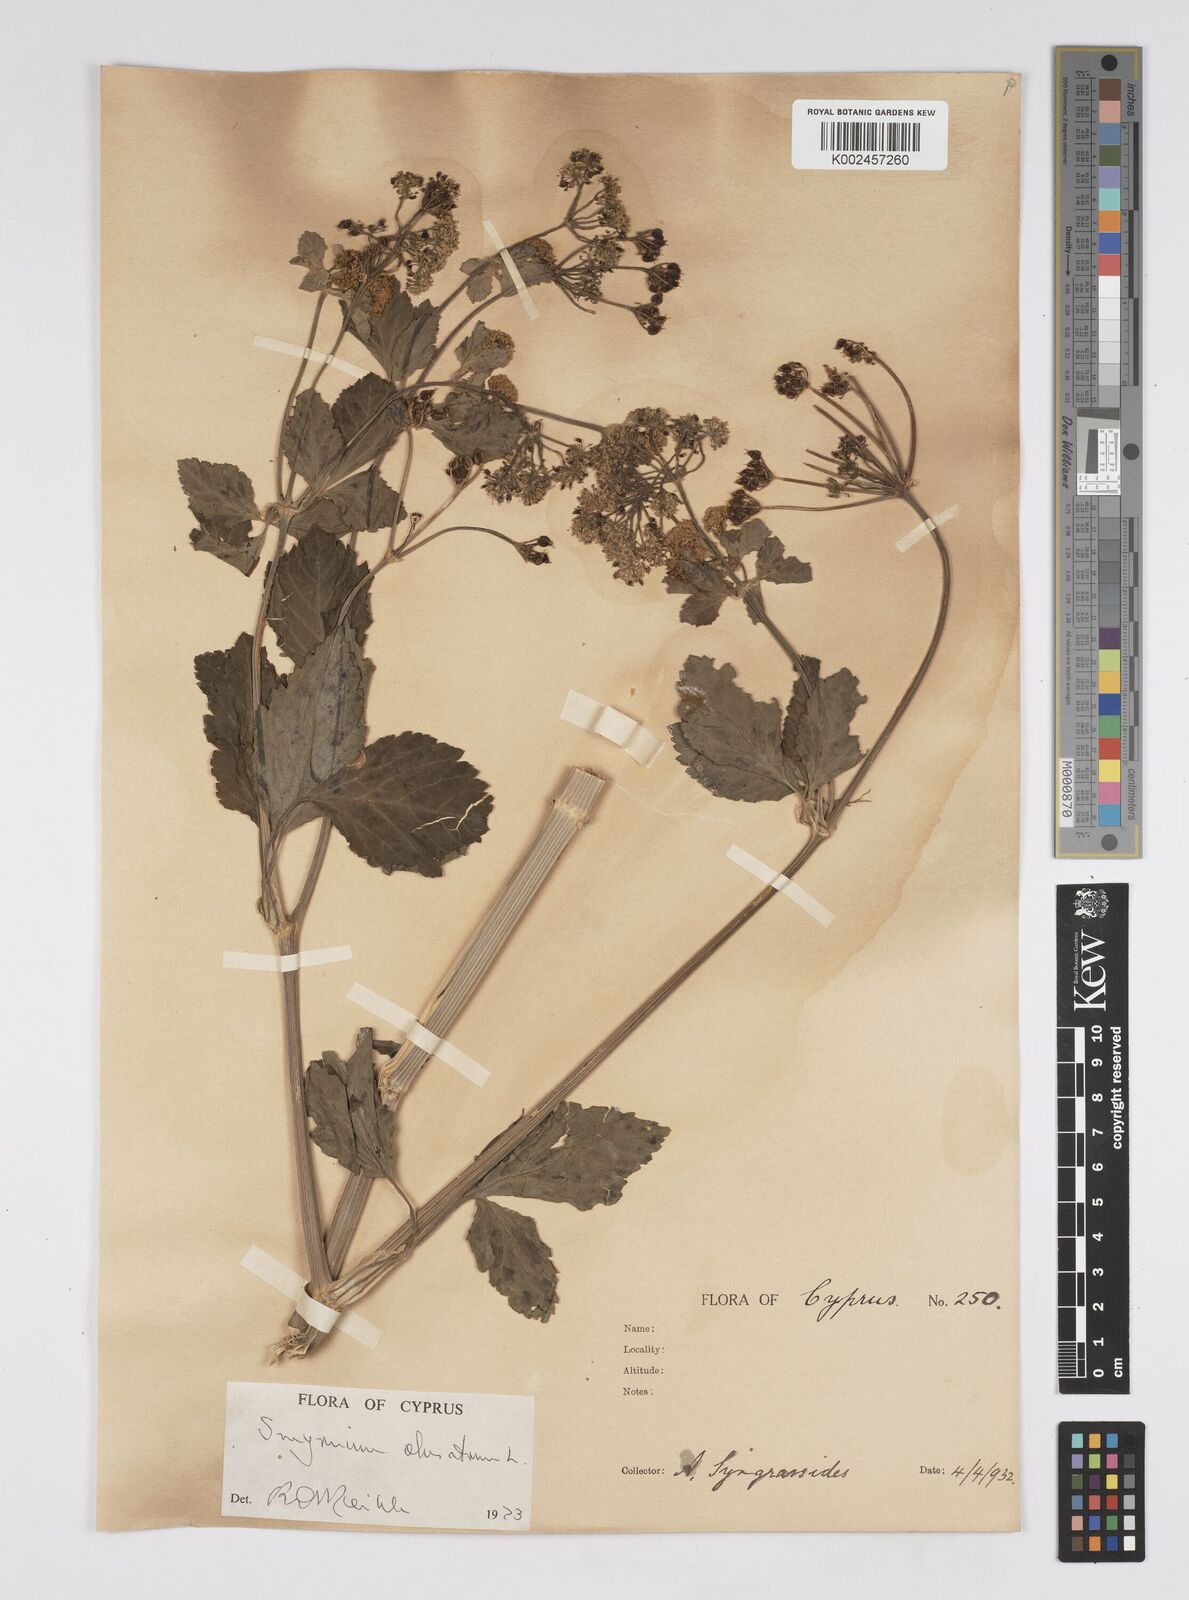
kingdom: Plantae
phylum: Tracheophyta
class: Magnoliopsida
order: Apiales
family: Apiaceae
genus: Smyrnium
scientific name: Smyrnium olusatrum
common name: Alexanders
